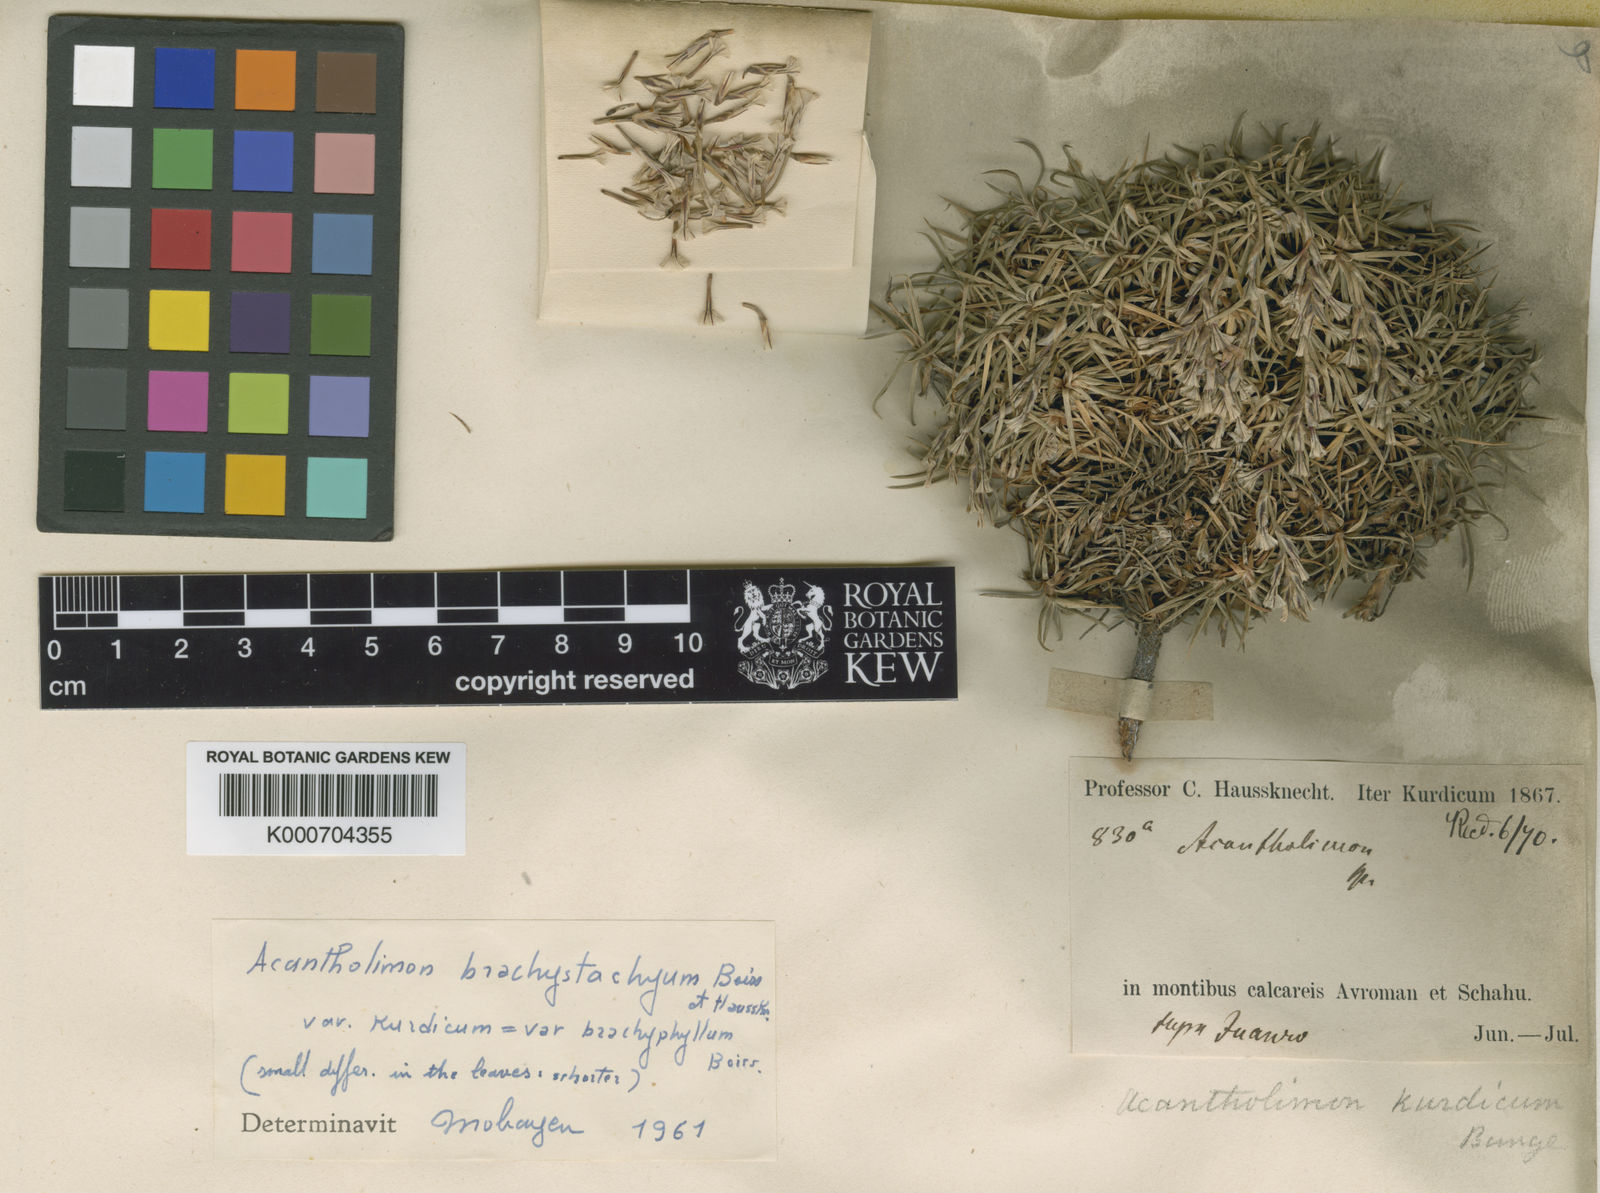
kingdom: Plantae
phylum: Tracheophyta
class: Magnoliopsida
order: Caryophyllales
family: Plumbaginaceae
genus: Acantholimon
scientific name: Acantholimon brachystachyum
